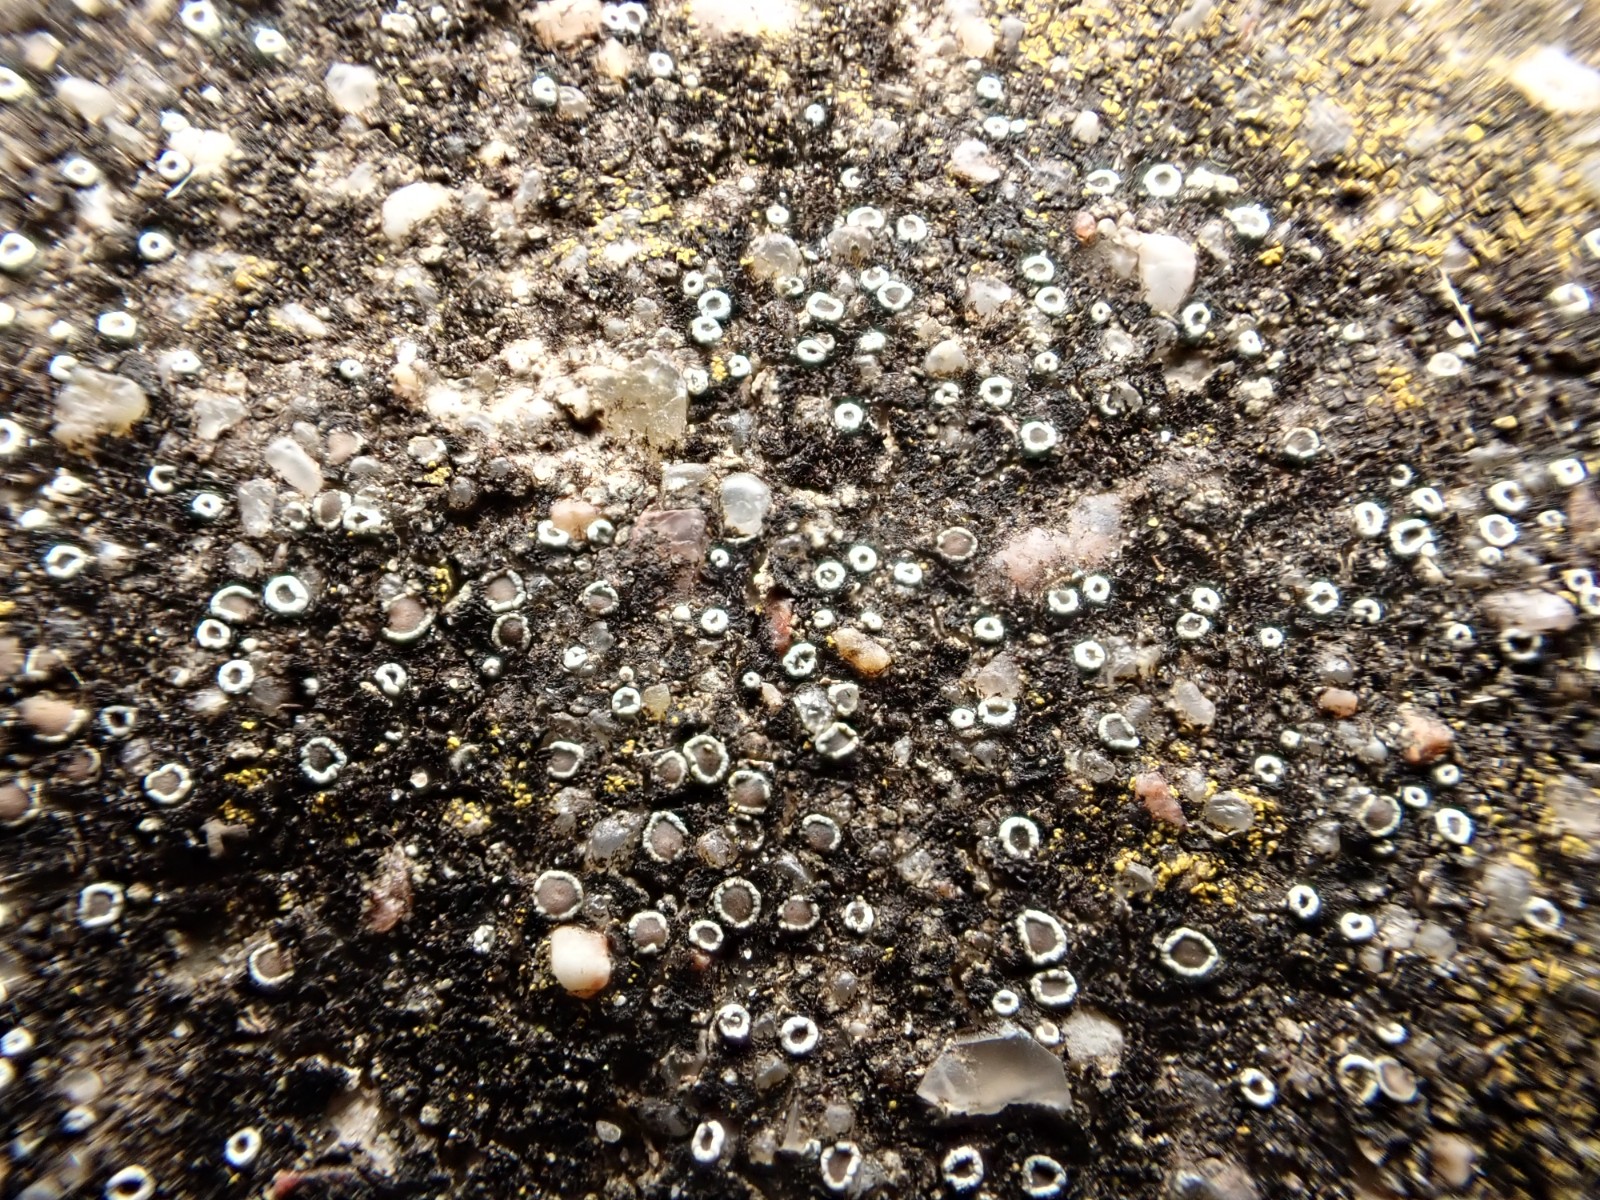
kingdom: Fungi
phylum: Ascomycota
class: Lecanoromycetes
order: Lecanorales
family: Lecanoraceae
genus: Polyozosia
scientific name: Polyozosia dispersa
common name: spredt kantskivelav
